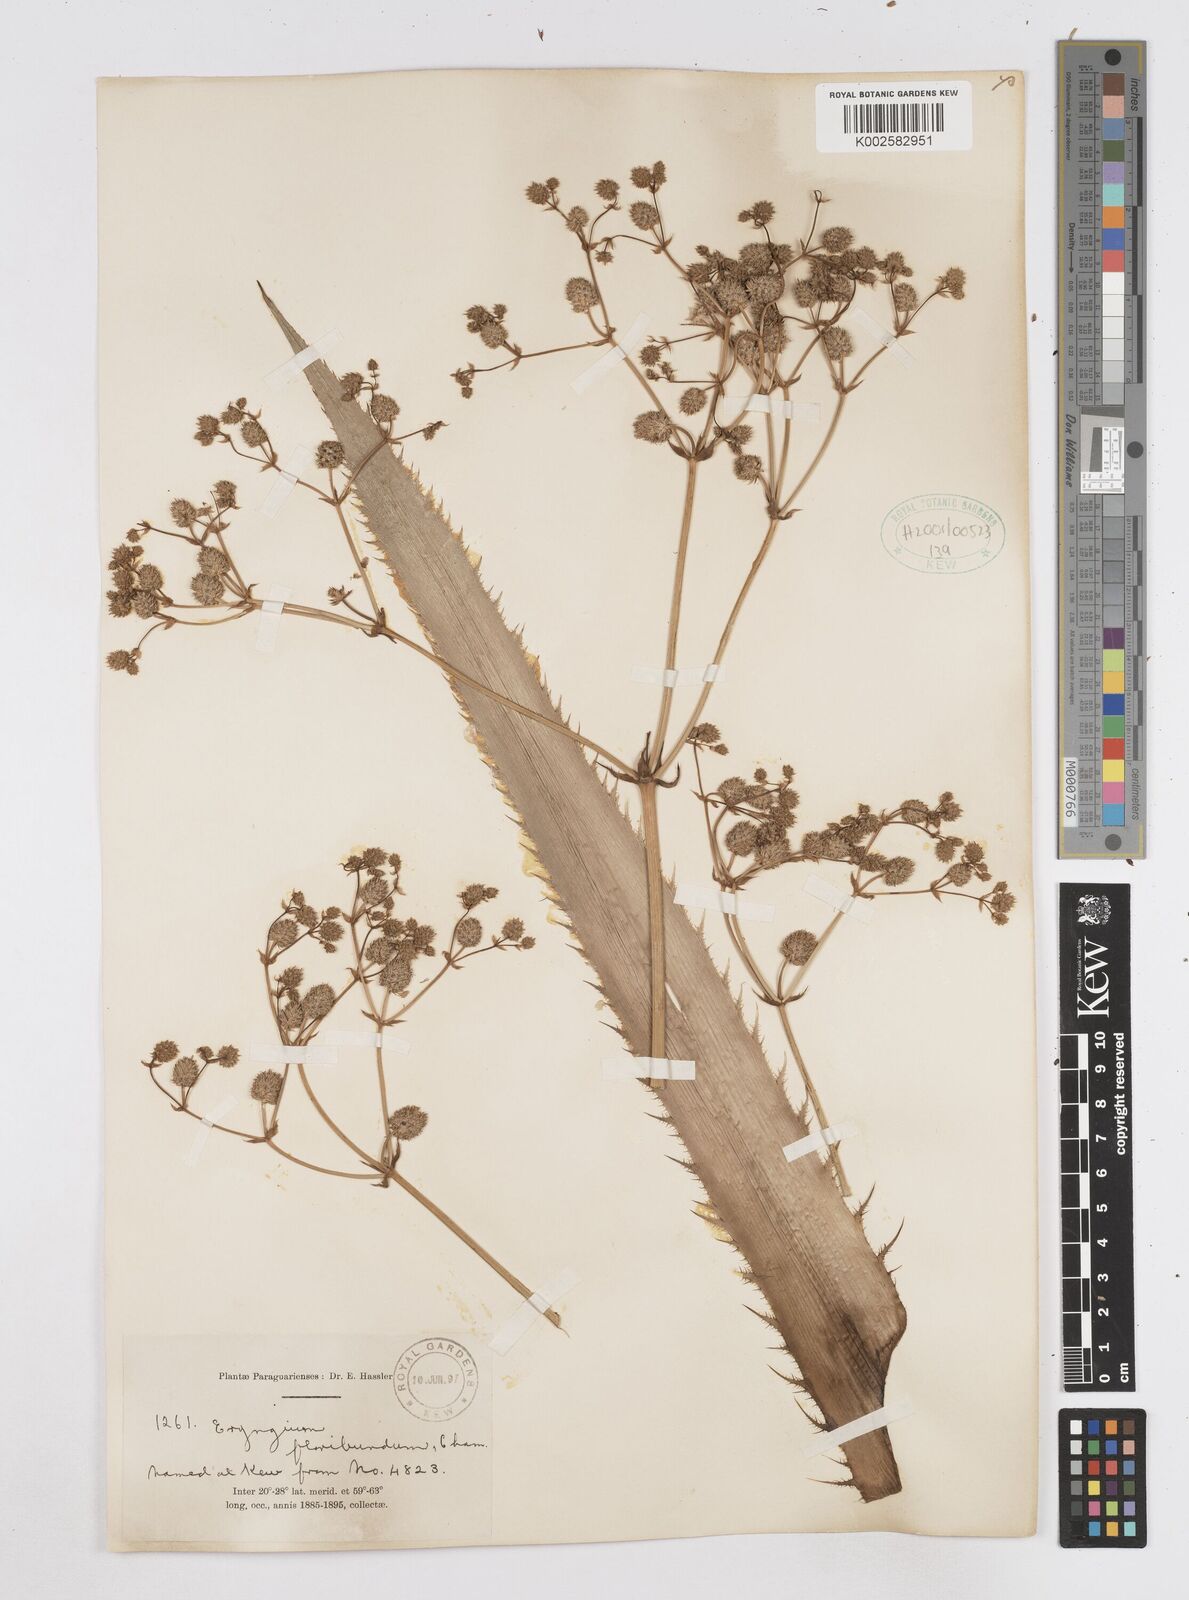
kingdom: Plantae
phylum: Tracheophyta
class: Magnoliopsida
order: Apiales
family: Apiaceae
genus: Eryngium
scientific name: Eryngium floribundum
